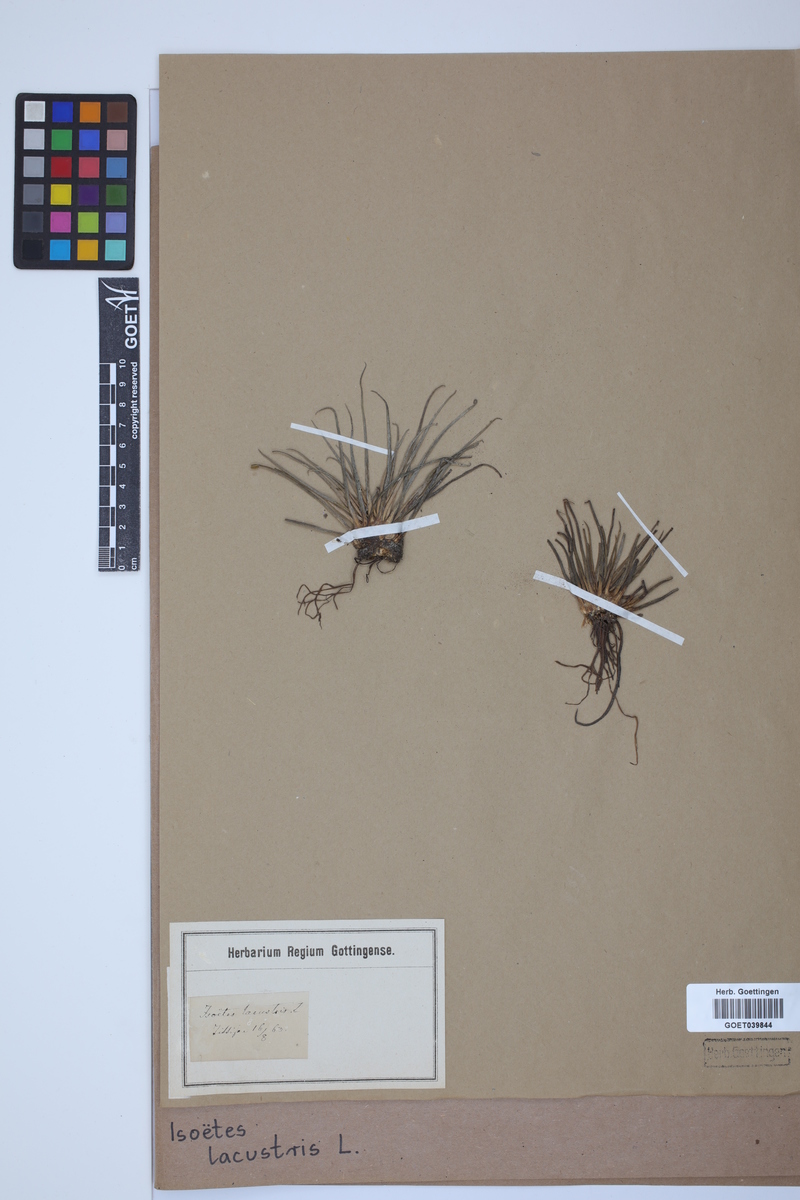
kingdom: Plantae
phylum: Tracheophyta
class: Lycopodiopsida
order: Isoetales
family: Isoetaceae
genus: Isoetes
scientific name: Isoetes lacustris
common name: Common quillwort
